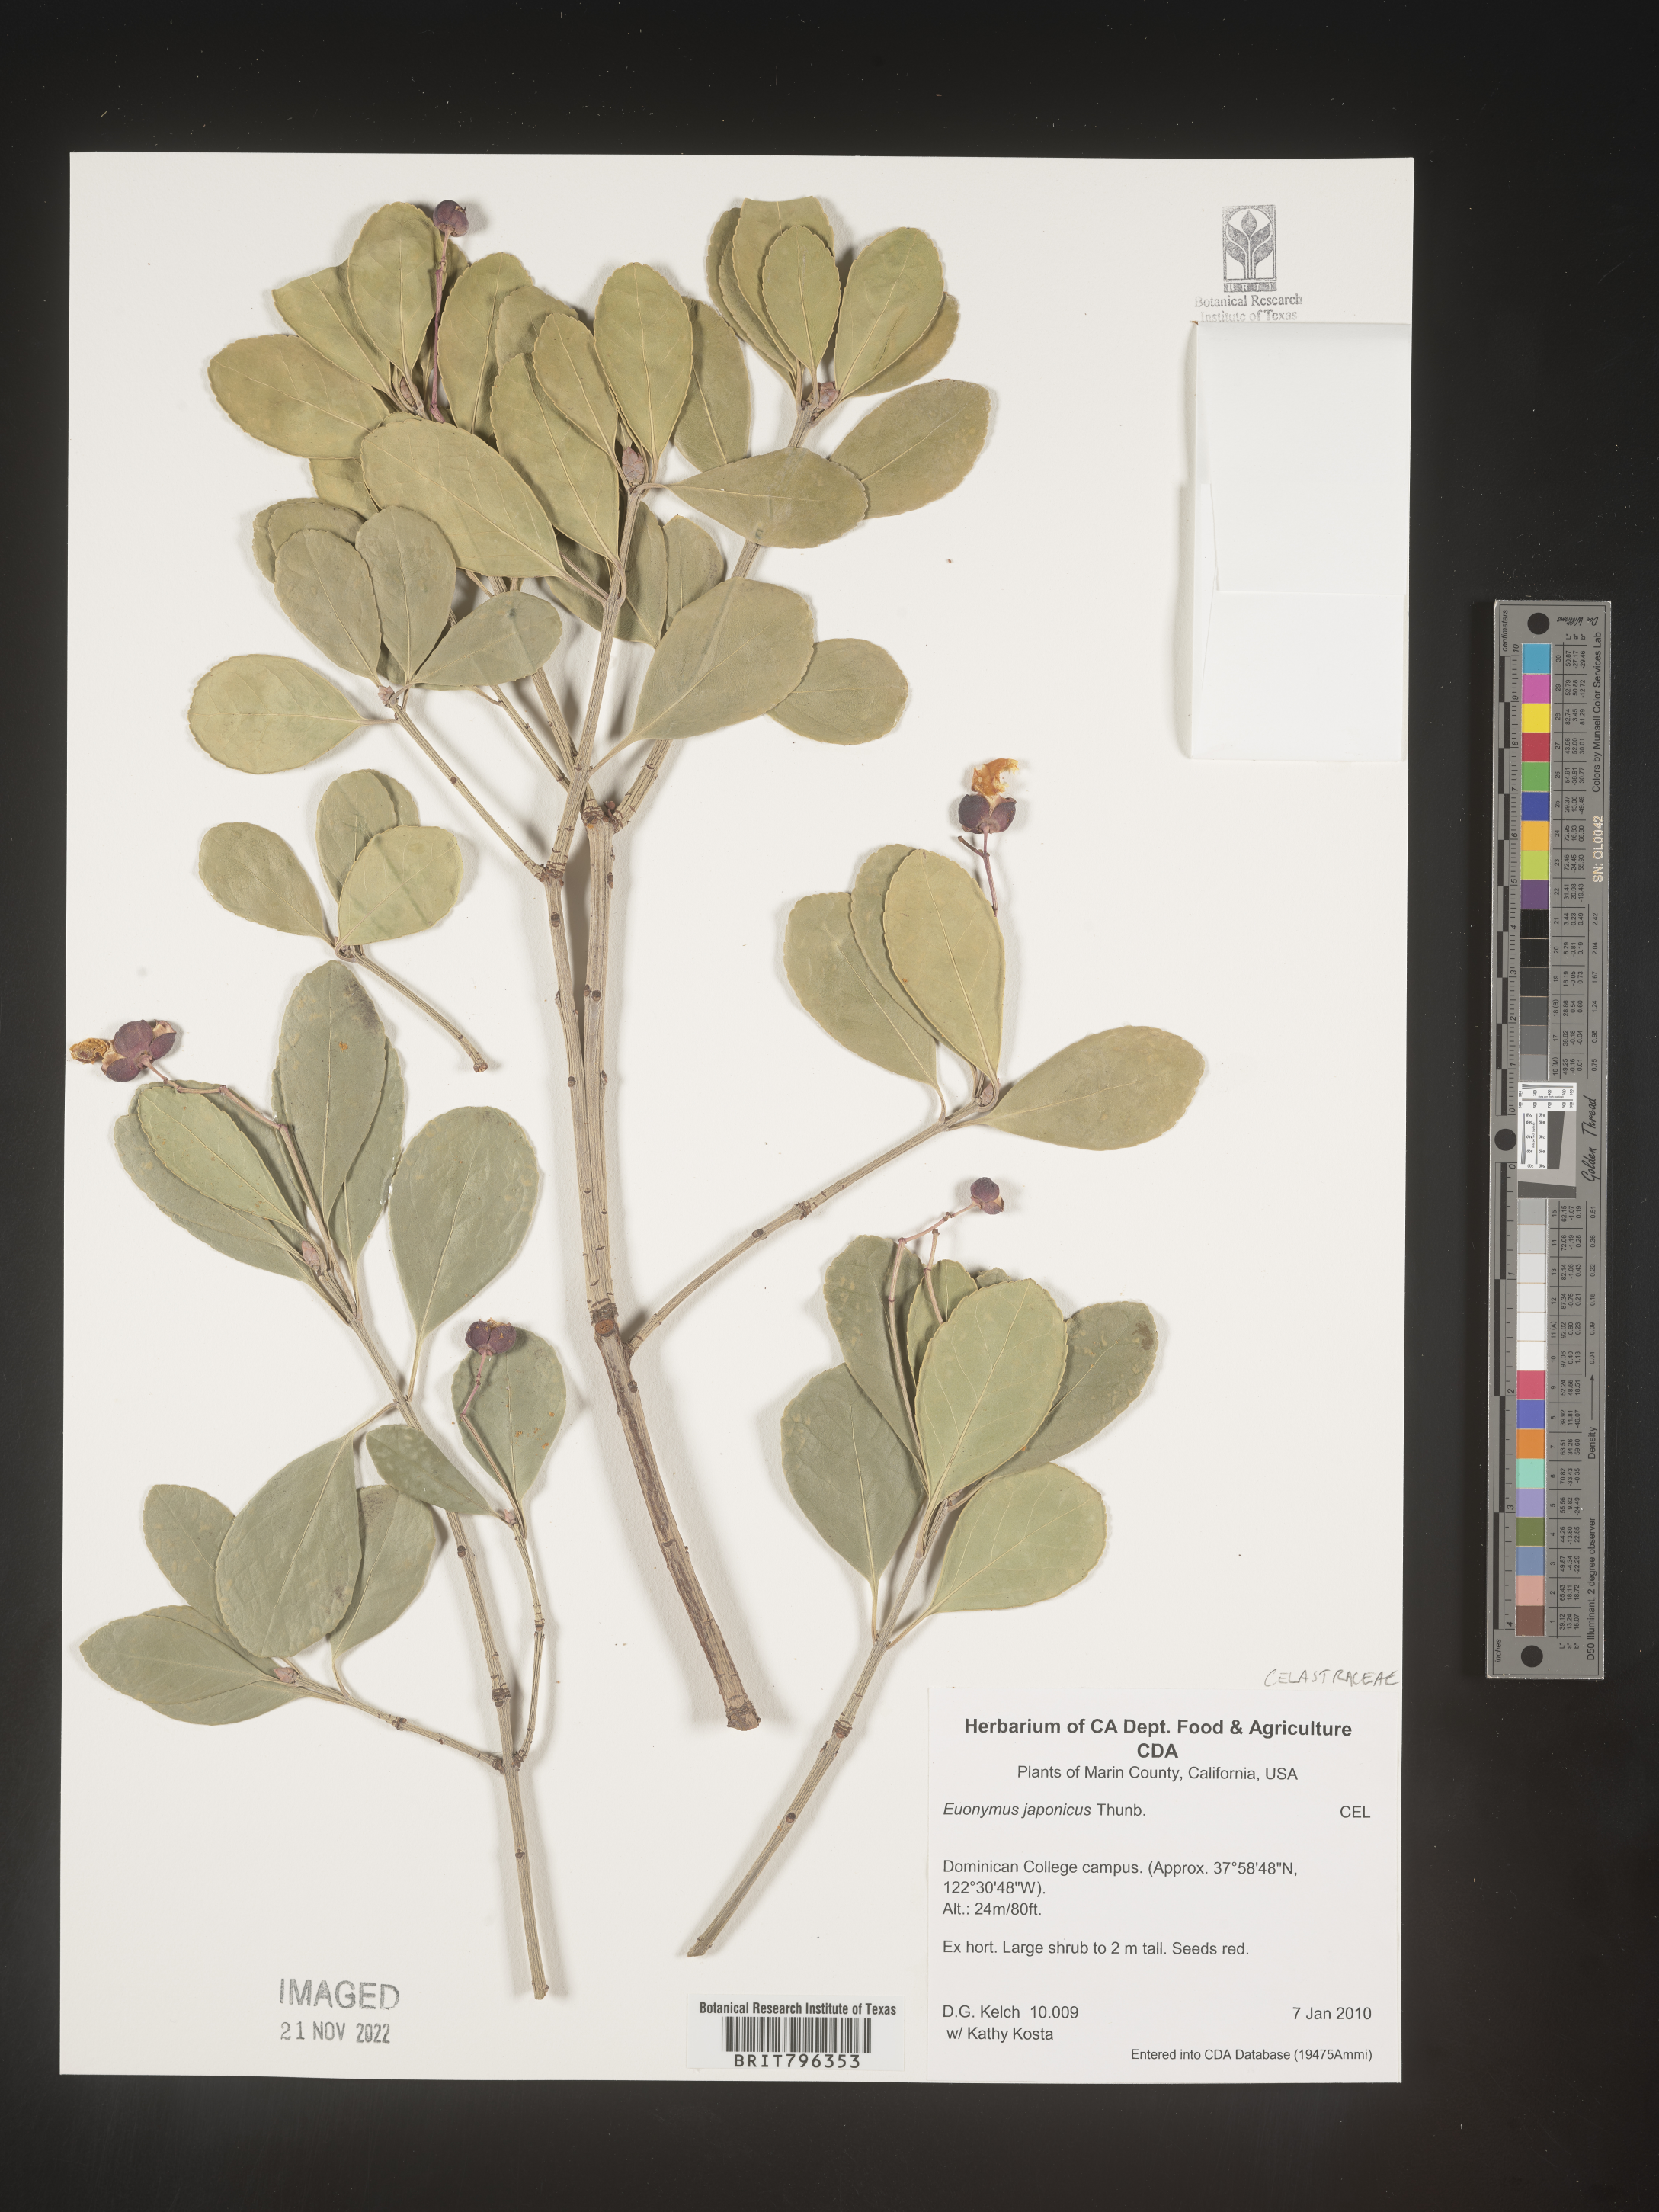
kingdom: Plantae
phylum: Tracheophyta
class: Magnoliopsida
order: Celastrales
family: Celastraceae
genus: Euonymus
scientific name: Euonymus japonicus
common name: Japanese spindletree
